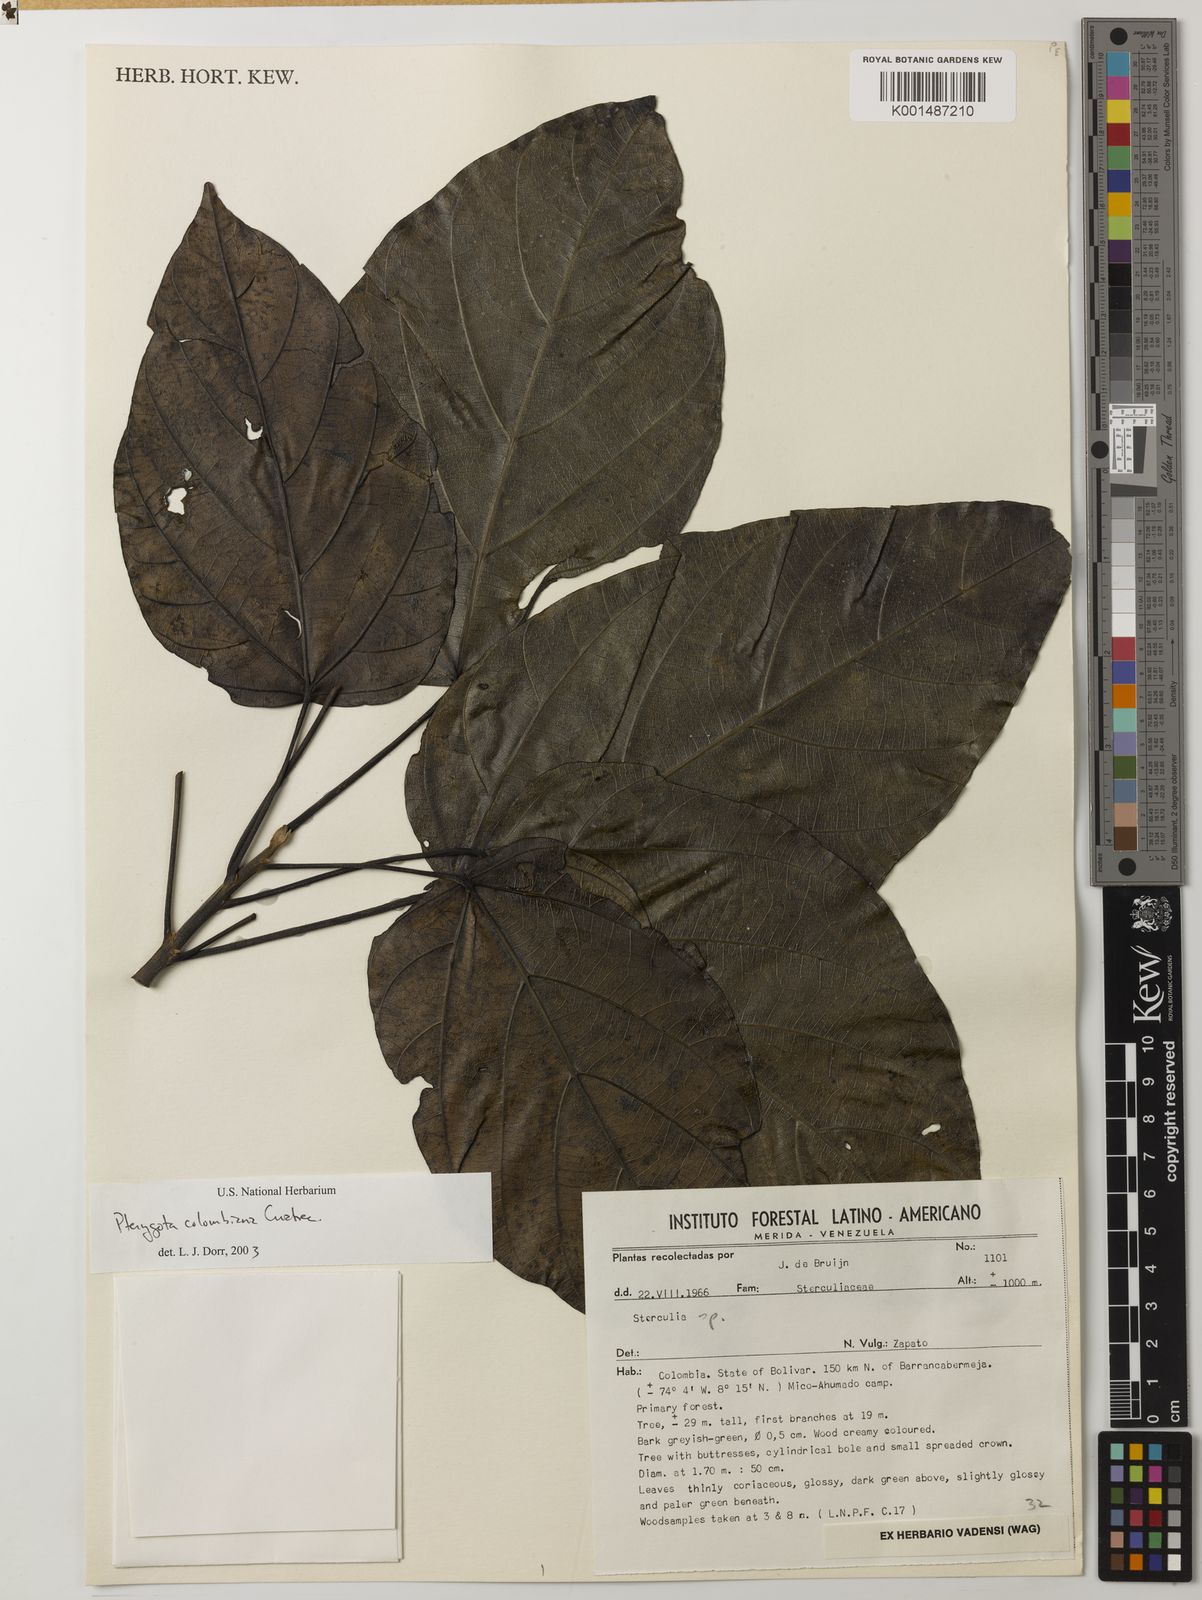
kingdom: Plantae
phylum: Tracheophyta
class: Magnoliopsida
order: Malvales
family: Malvaceae
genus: Pterygota
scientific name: Pterygota colombiana
